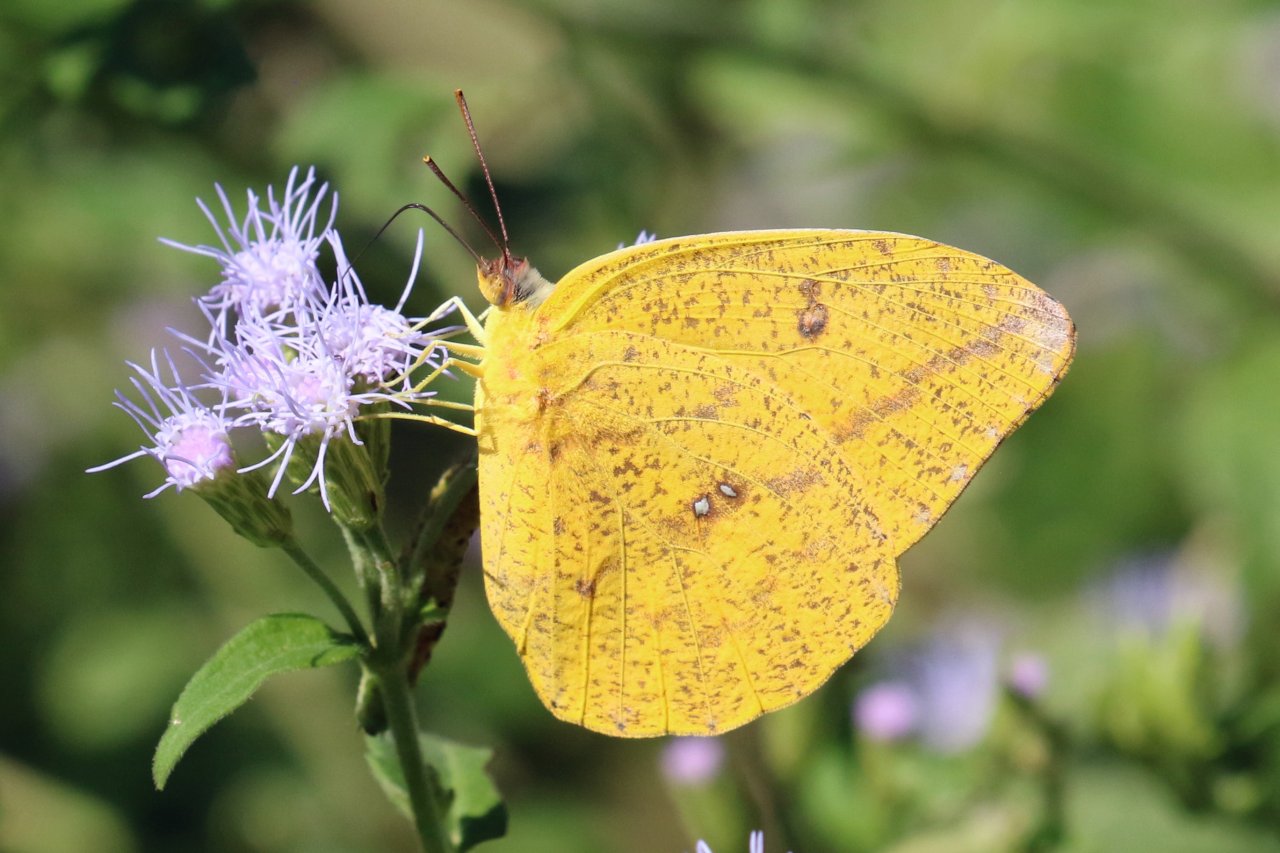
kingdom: Animalia
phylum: Arthropoda
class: Insecta
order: Lepidoptera
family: Pieridae
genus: Phoebis
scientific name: Phoebis agarithe
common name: Large Orange Sulphur
